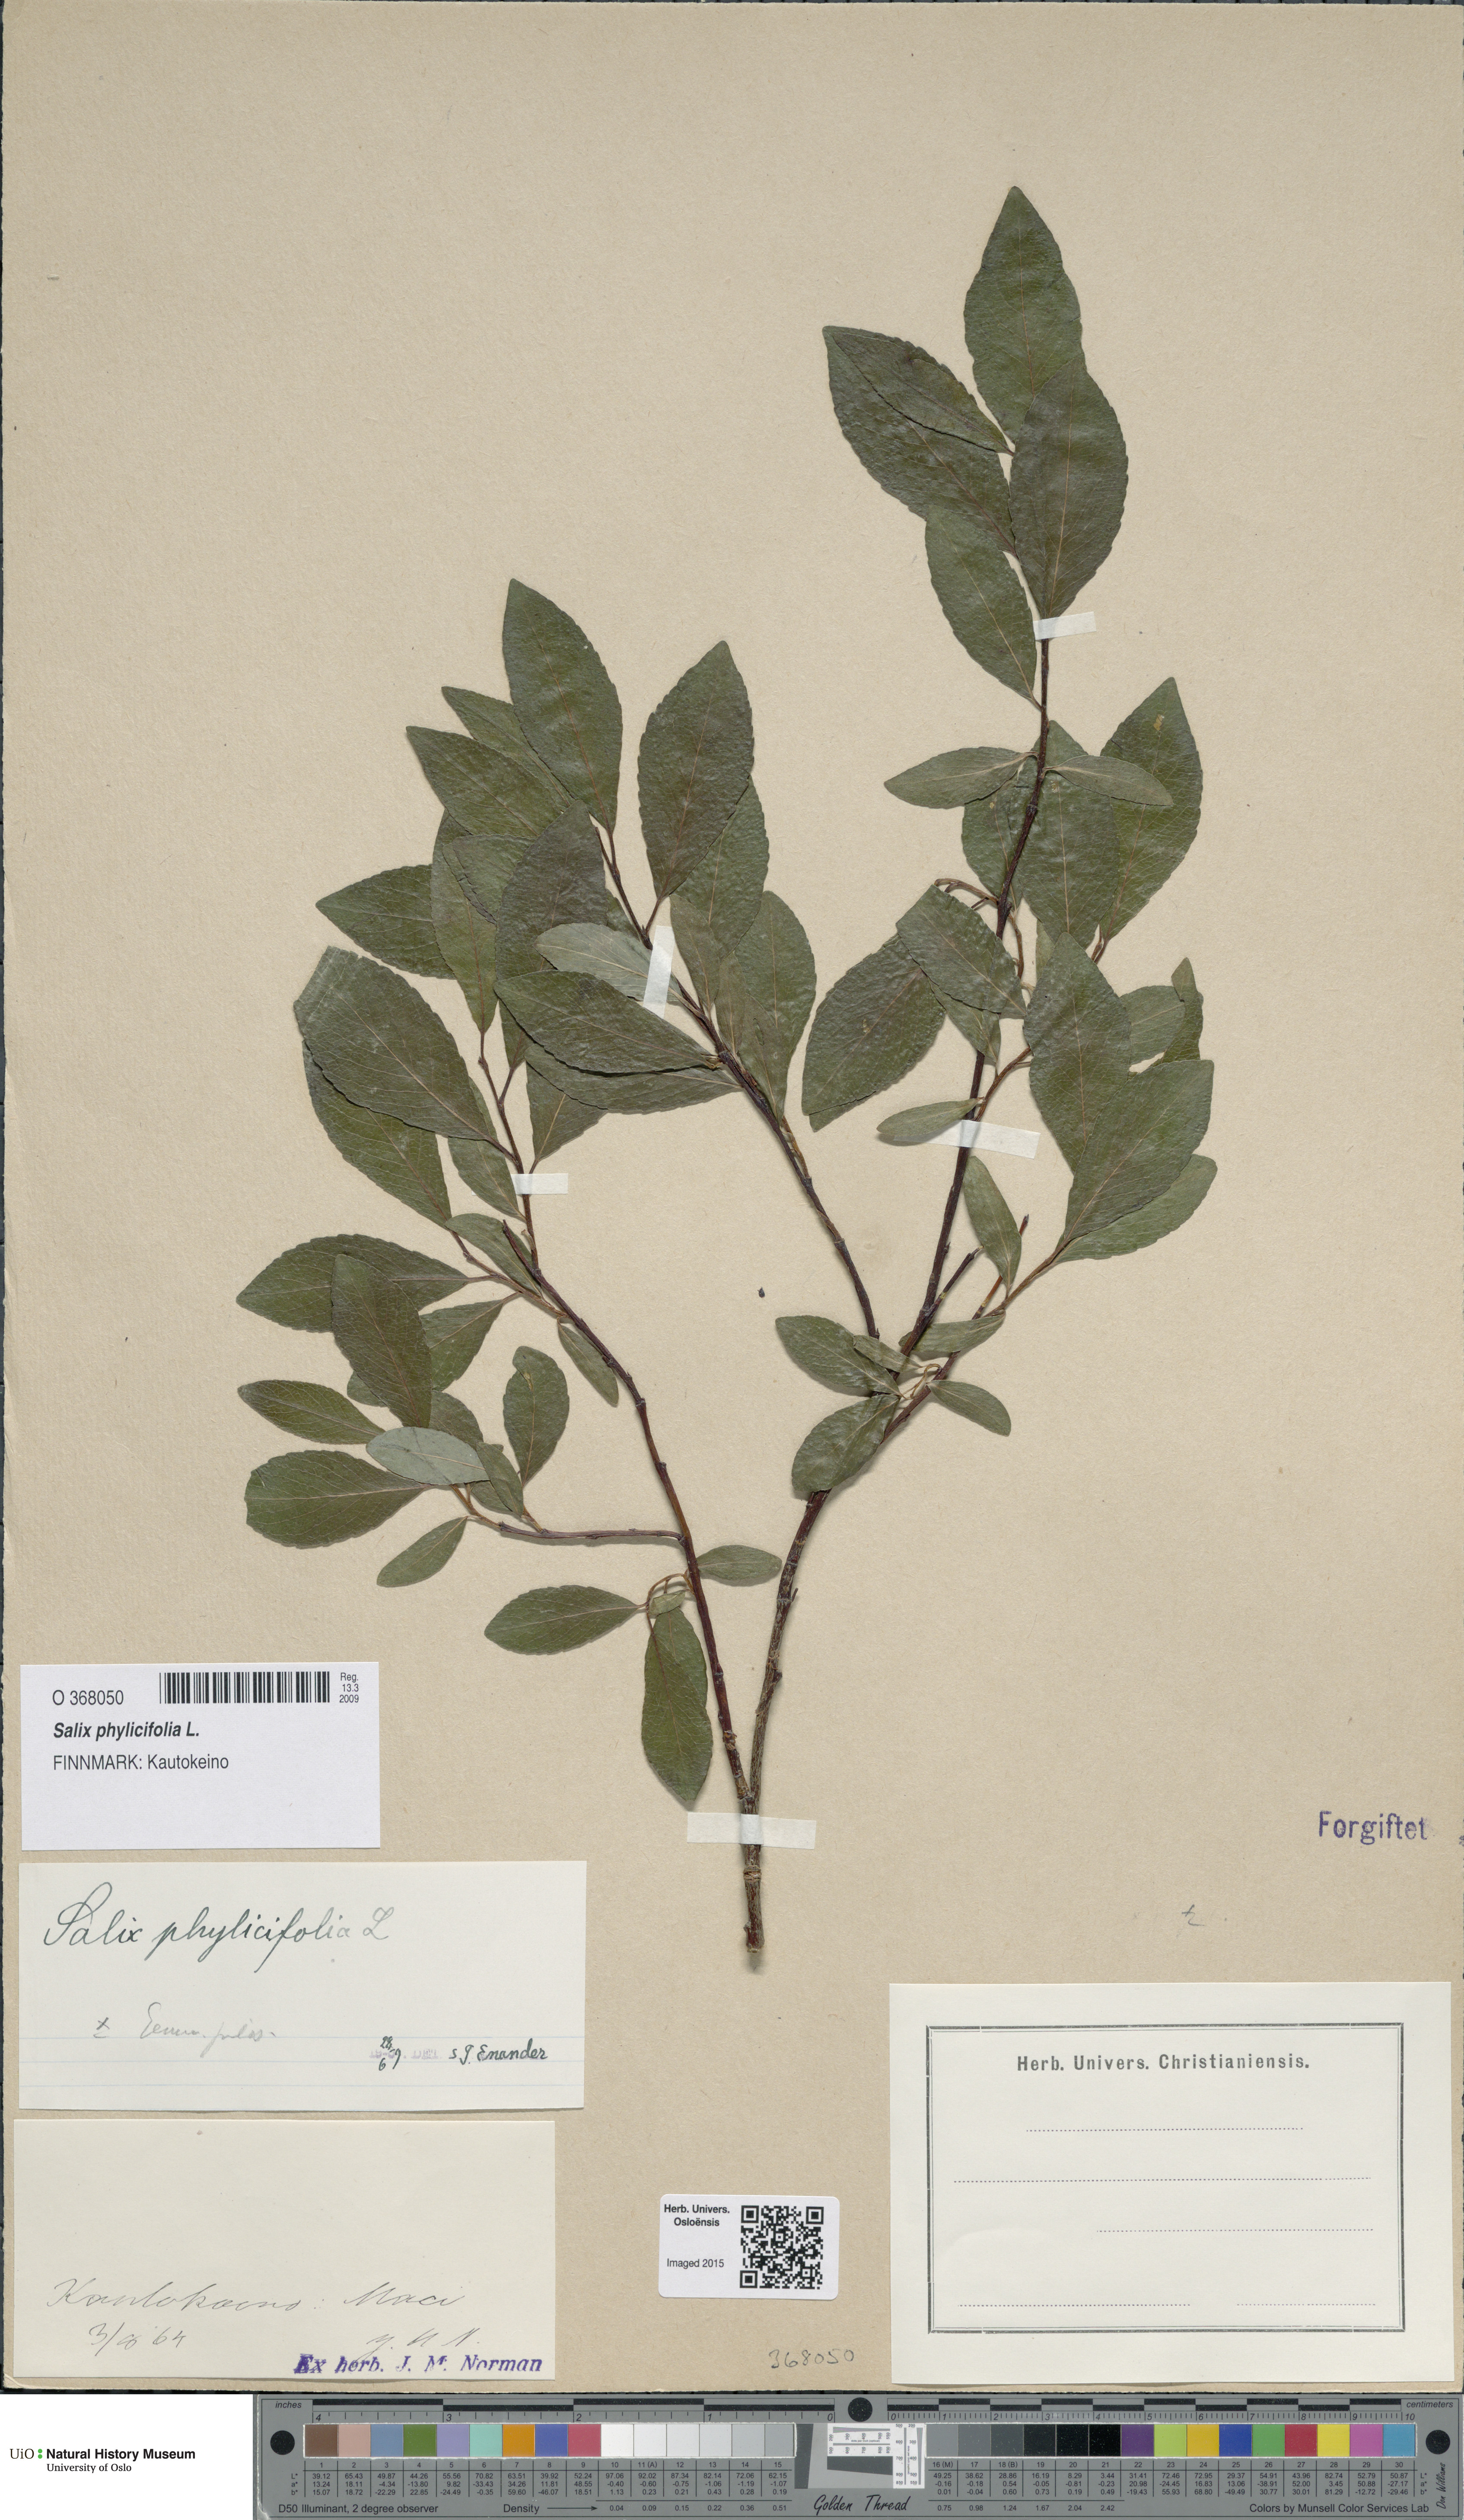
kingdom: Plantae
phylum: Tracheophyta
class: Magnoliopsida
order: Malpighiales
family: Salicaceae
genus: Salix
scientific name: Salix phylicifolia
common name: Tea-leaved willow
